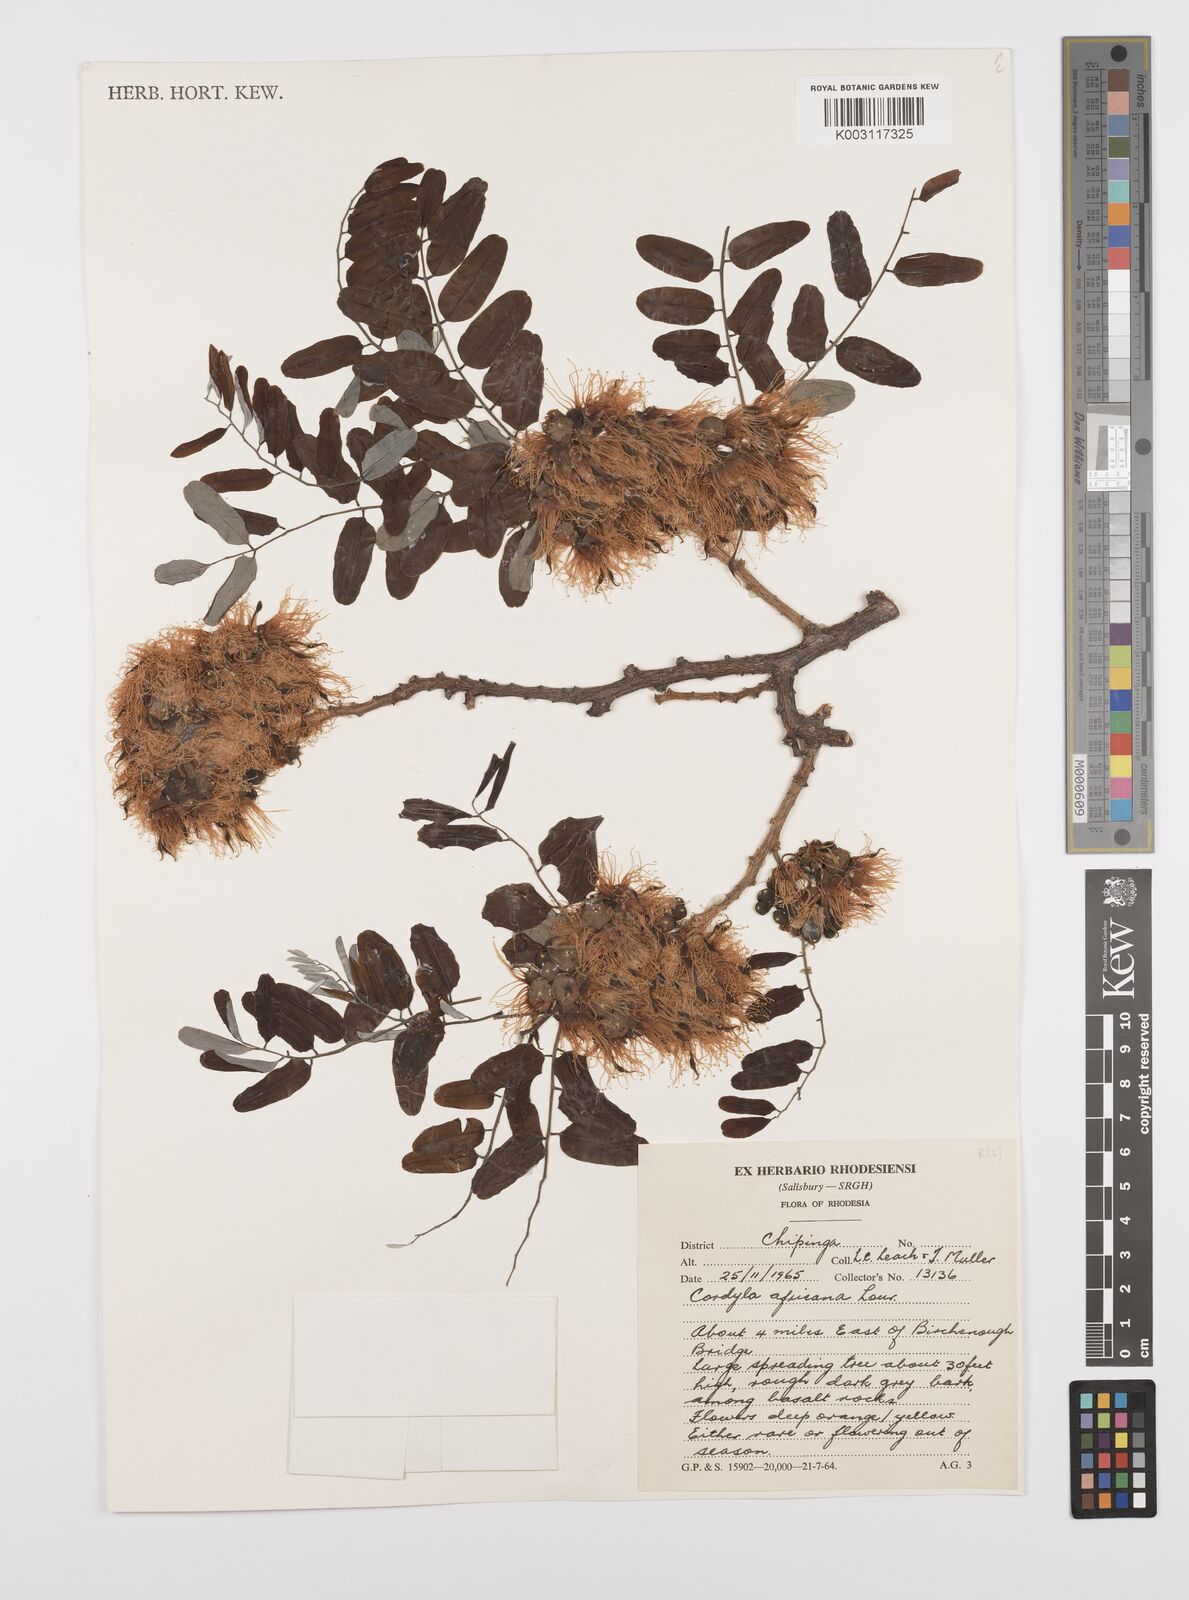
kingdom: Plantae
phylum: Tracheophyta
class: Magnoliopsida
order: Fabales
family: Fabaceae
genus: Cordyla
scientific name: Cordyla africana
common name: Wild mango
